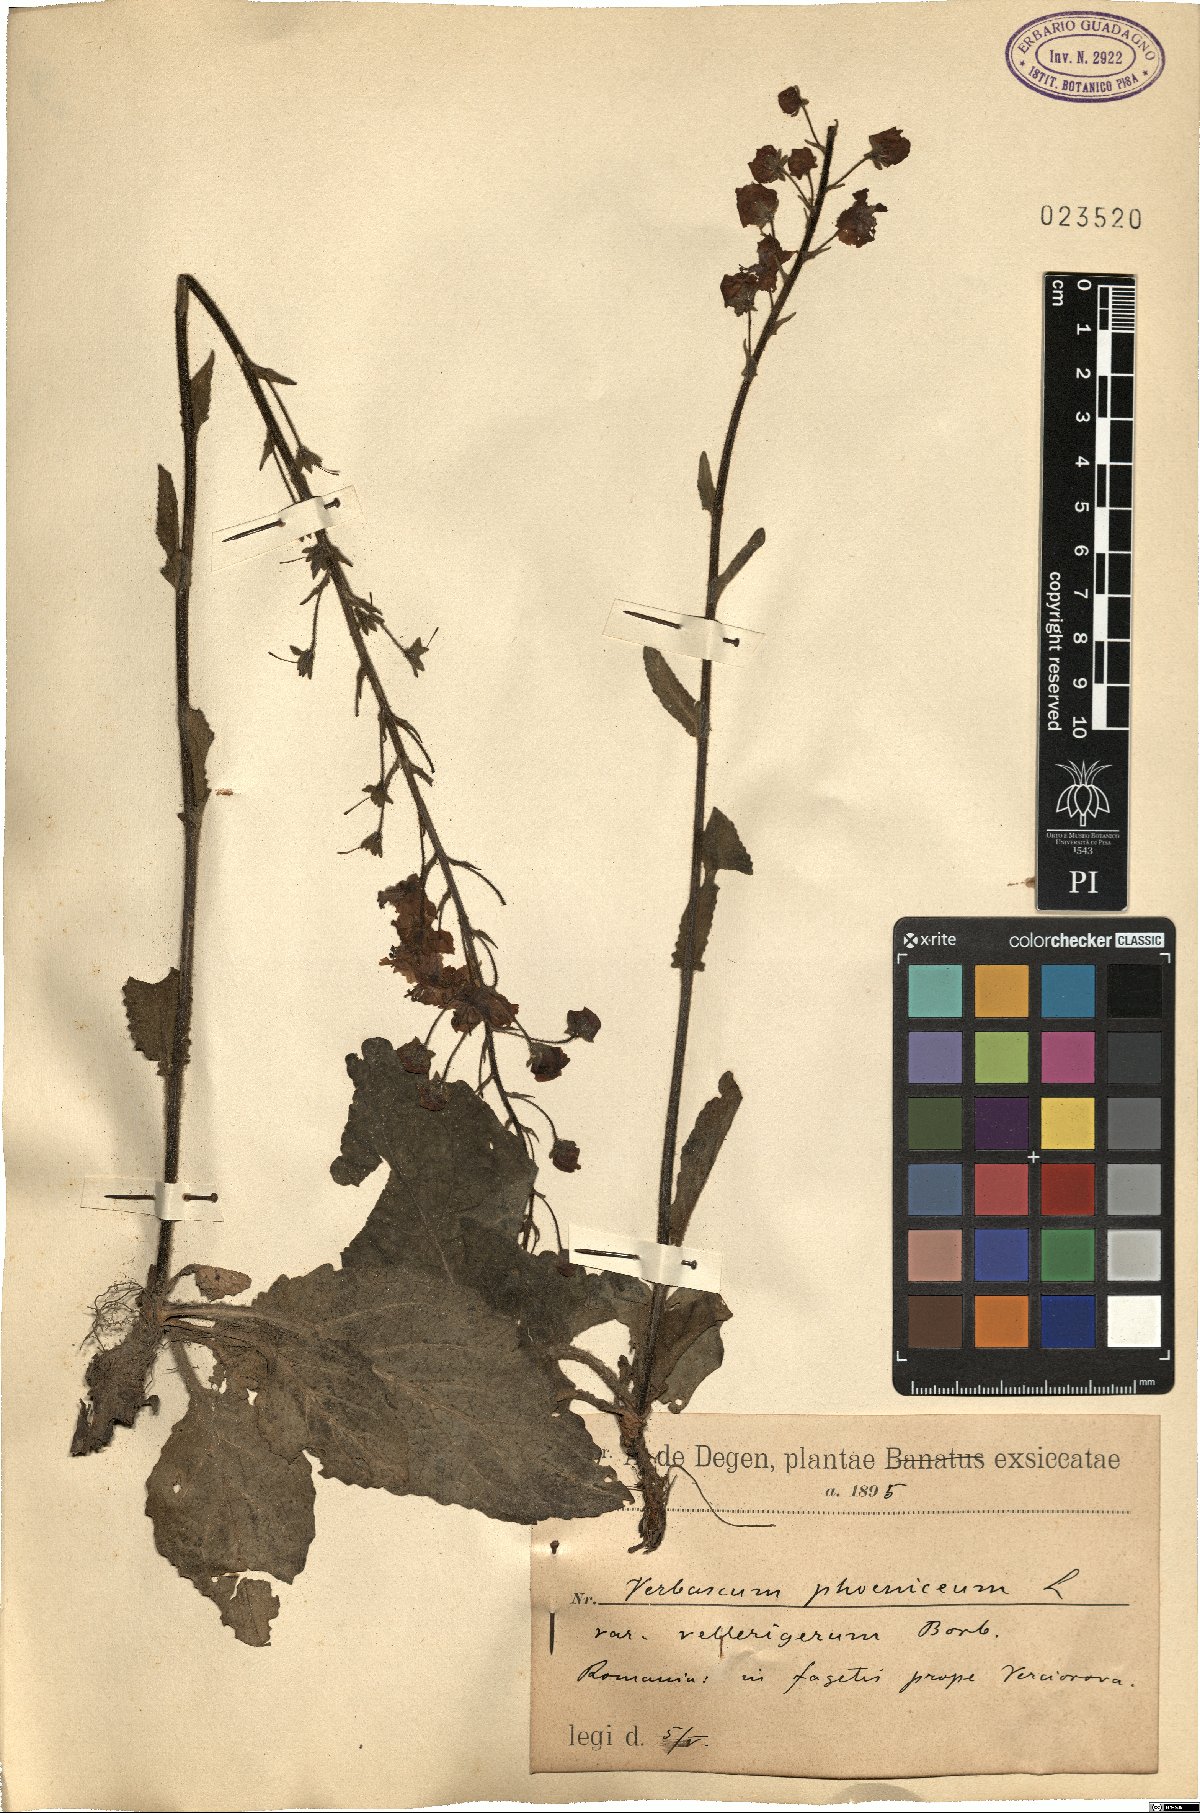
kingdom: Plantae
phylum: Tracheophyta
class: Magnoliopsida
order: Lamiales
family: Scrophulariaceae
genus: Verbascum
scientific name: Verbascum phoeniceum
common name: Purple mullein
